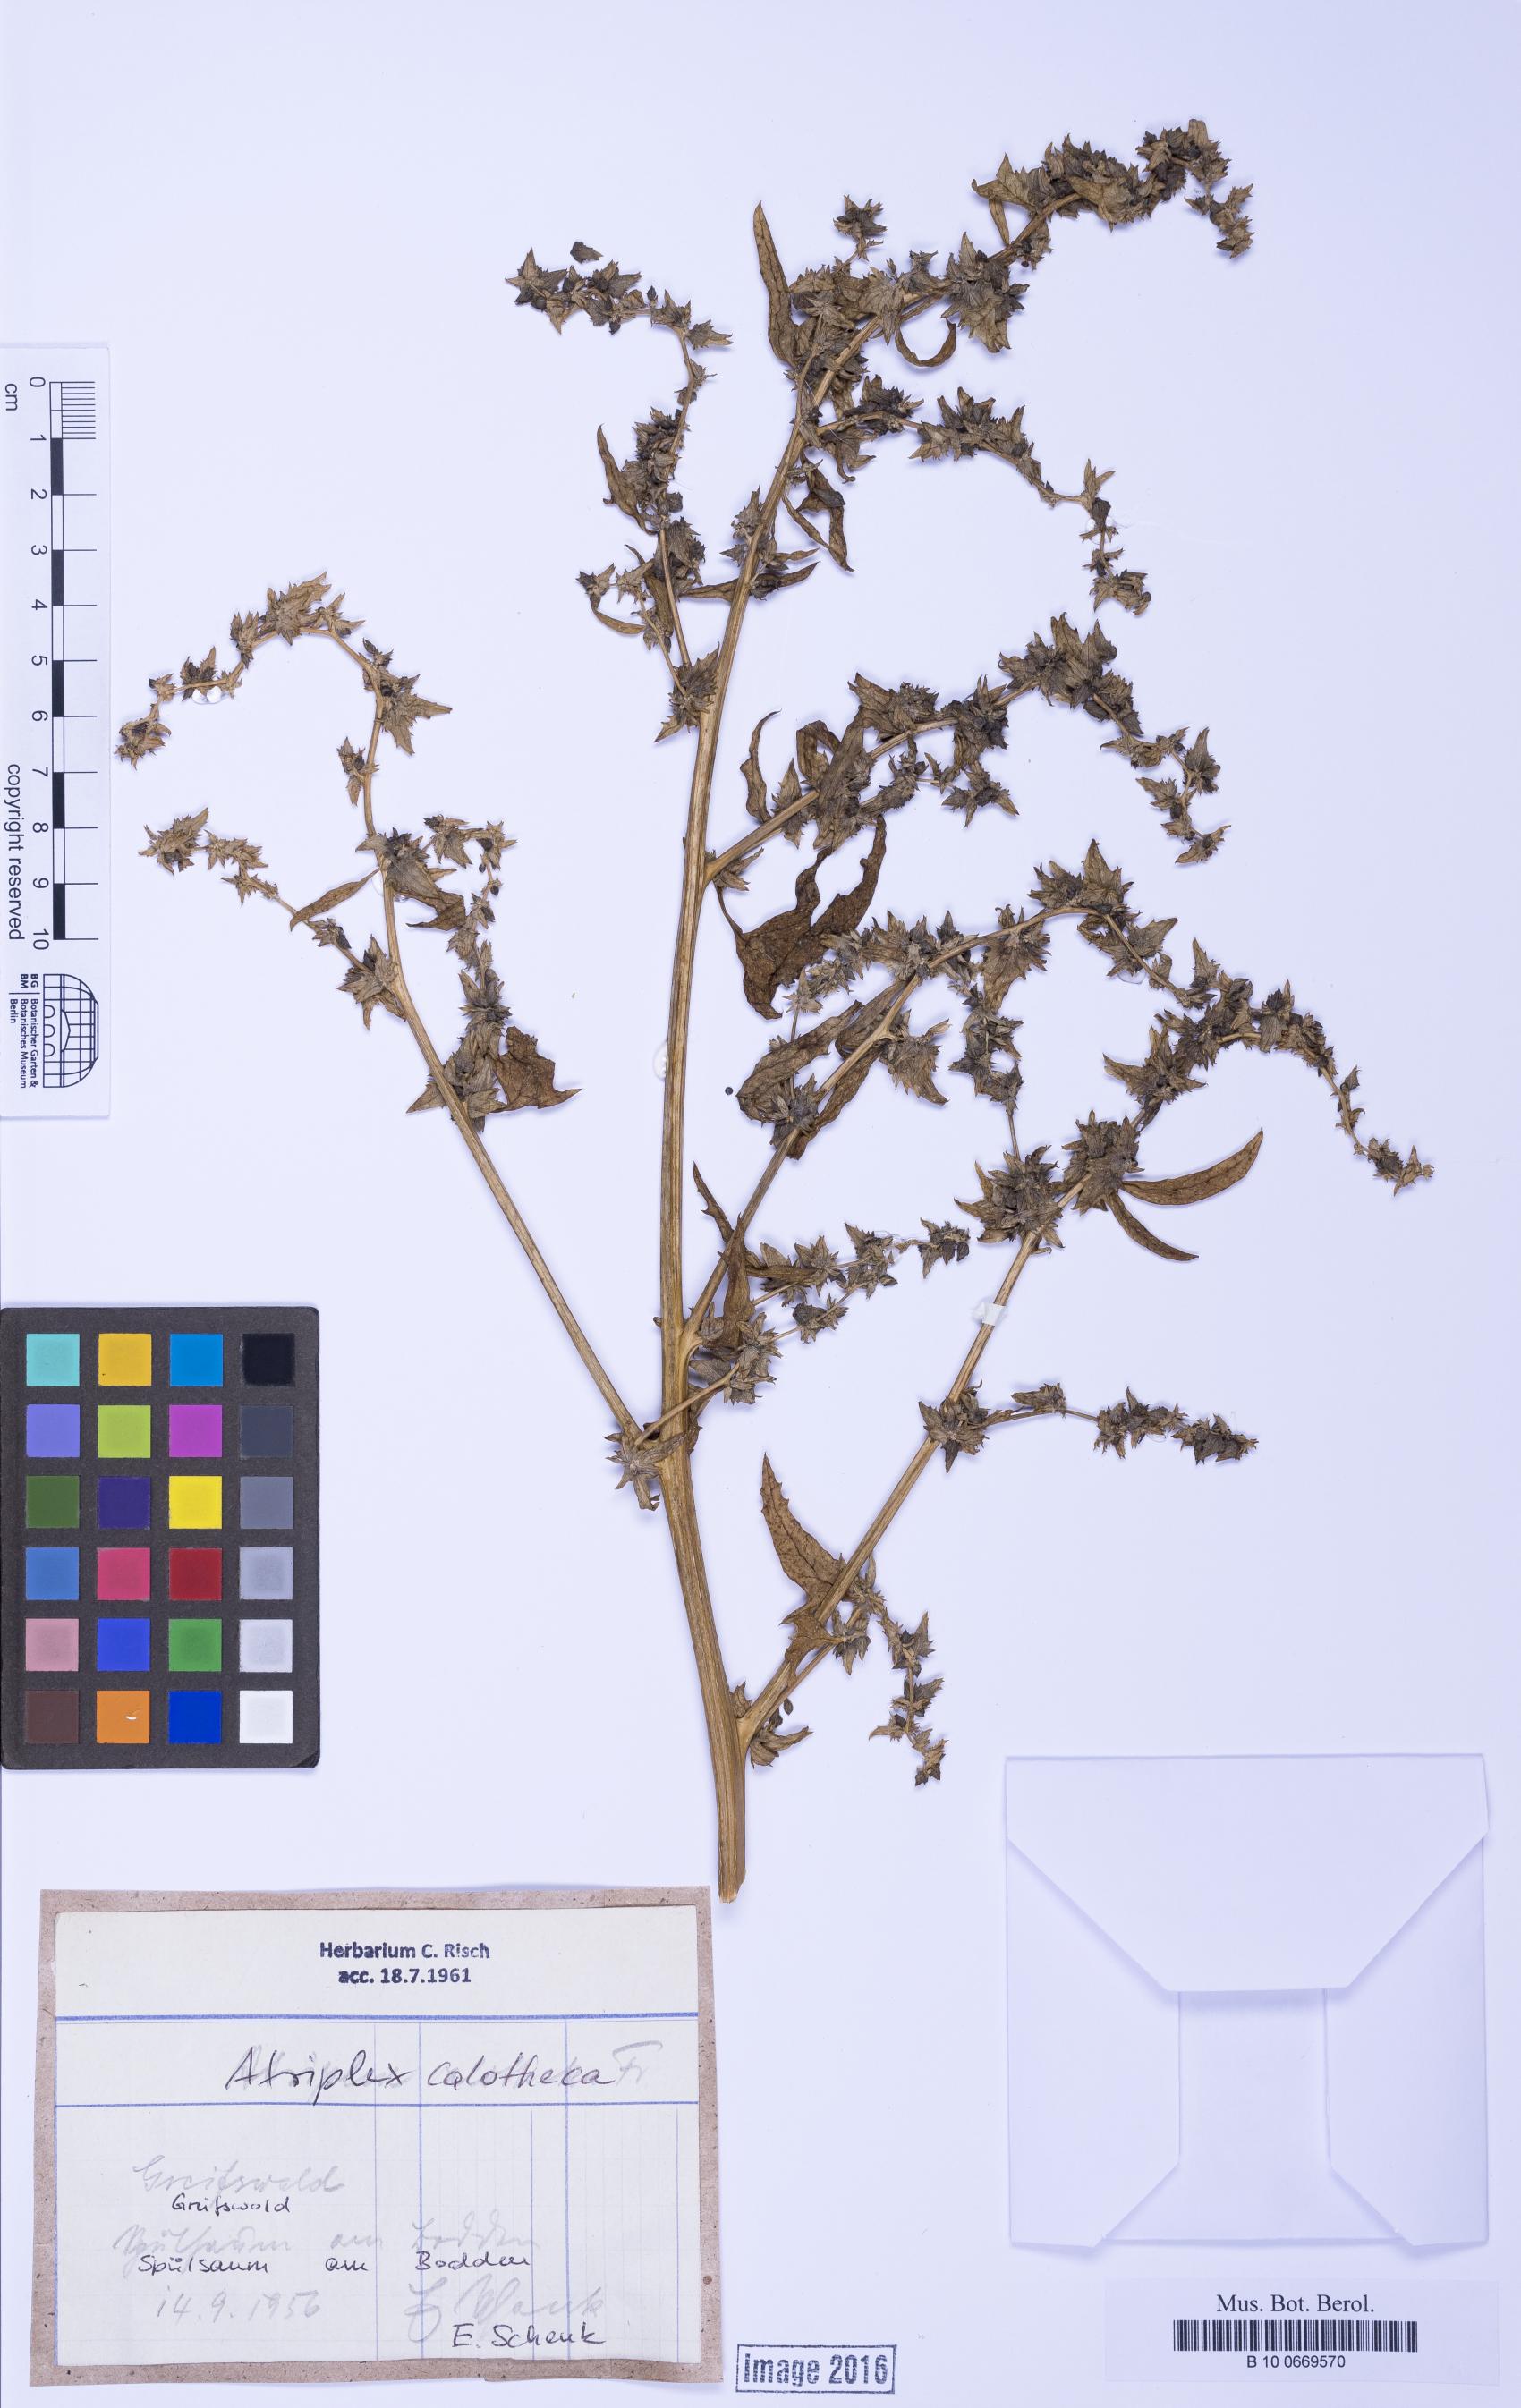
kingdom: Plantae
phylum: Tracheophyta
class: Magnoliopsida
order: Caryophyllales
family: Amaranthaceae
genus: Atriplex
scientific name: Atriplex calotheca
